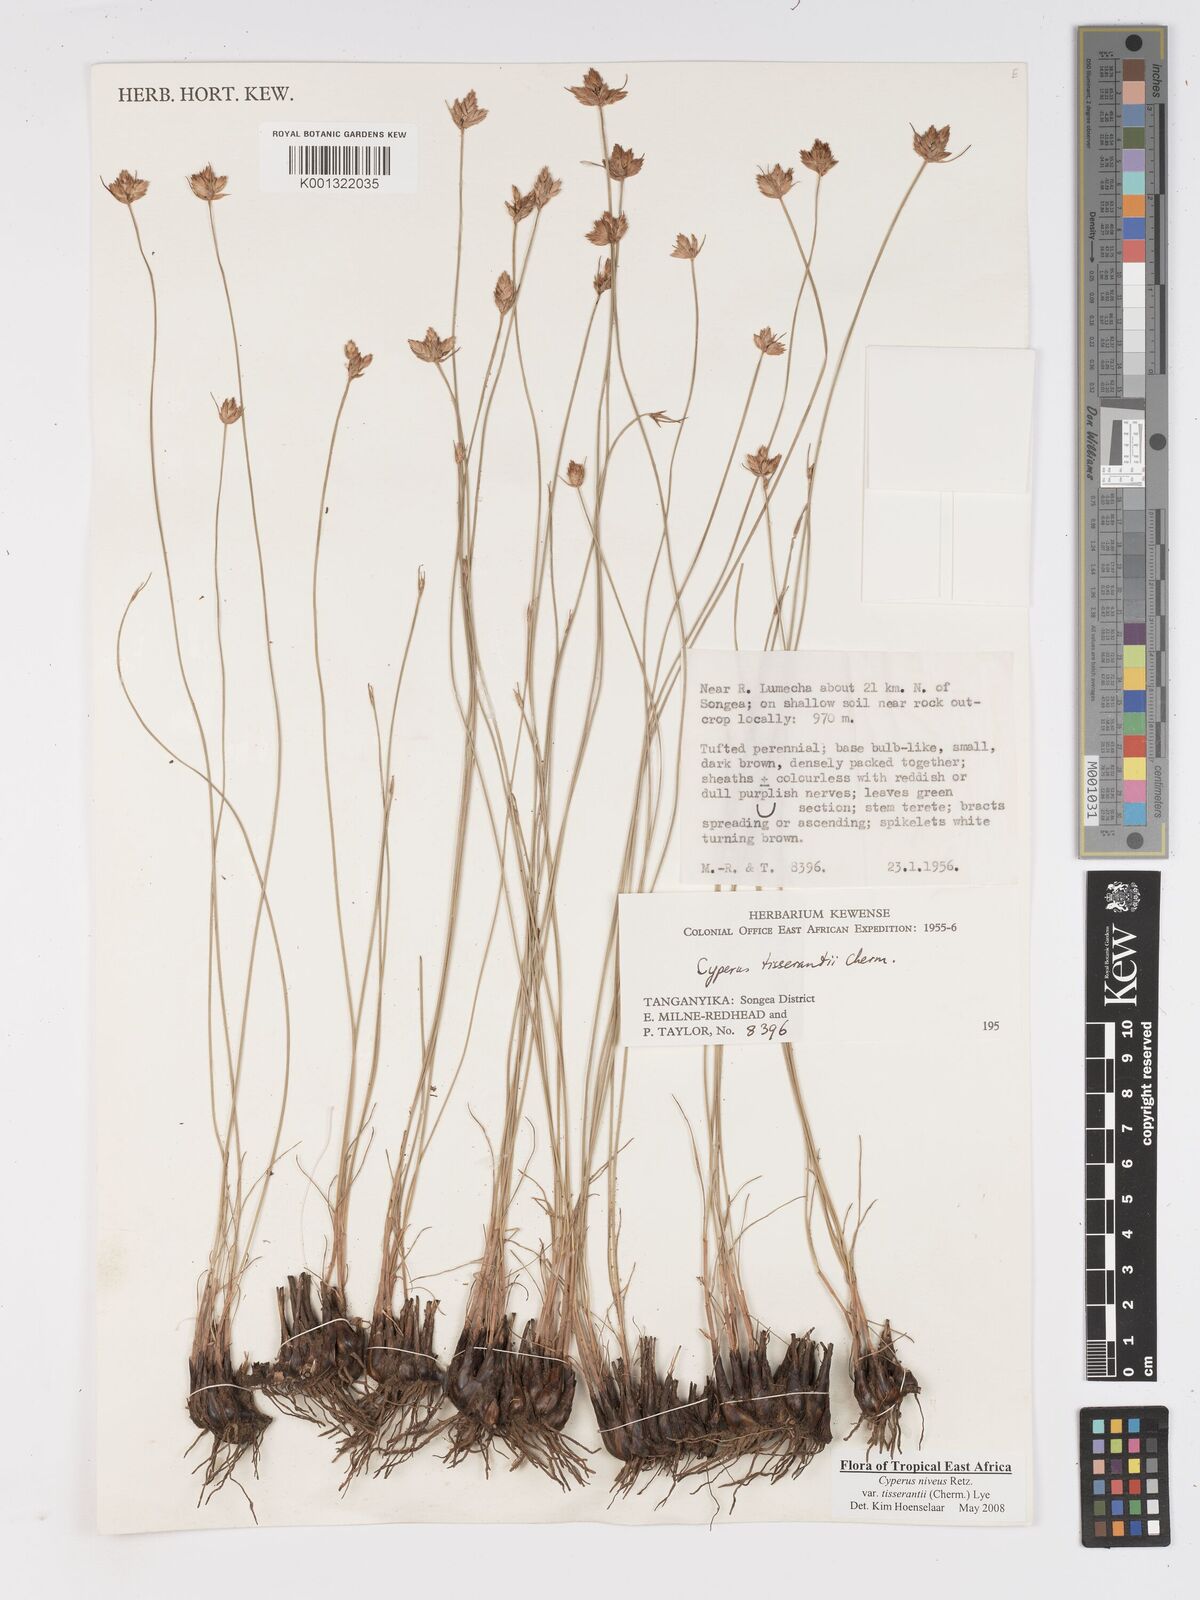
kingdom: Plantae
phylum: Tracheophyta
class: Liliopsida
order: Poales
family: Cyperaceae
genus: Cyperus
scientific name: Cyperus niveus
